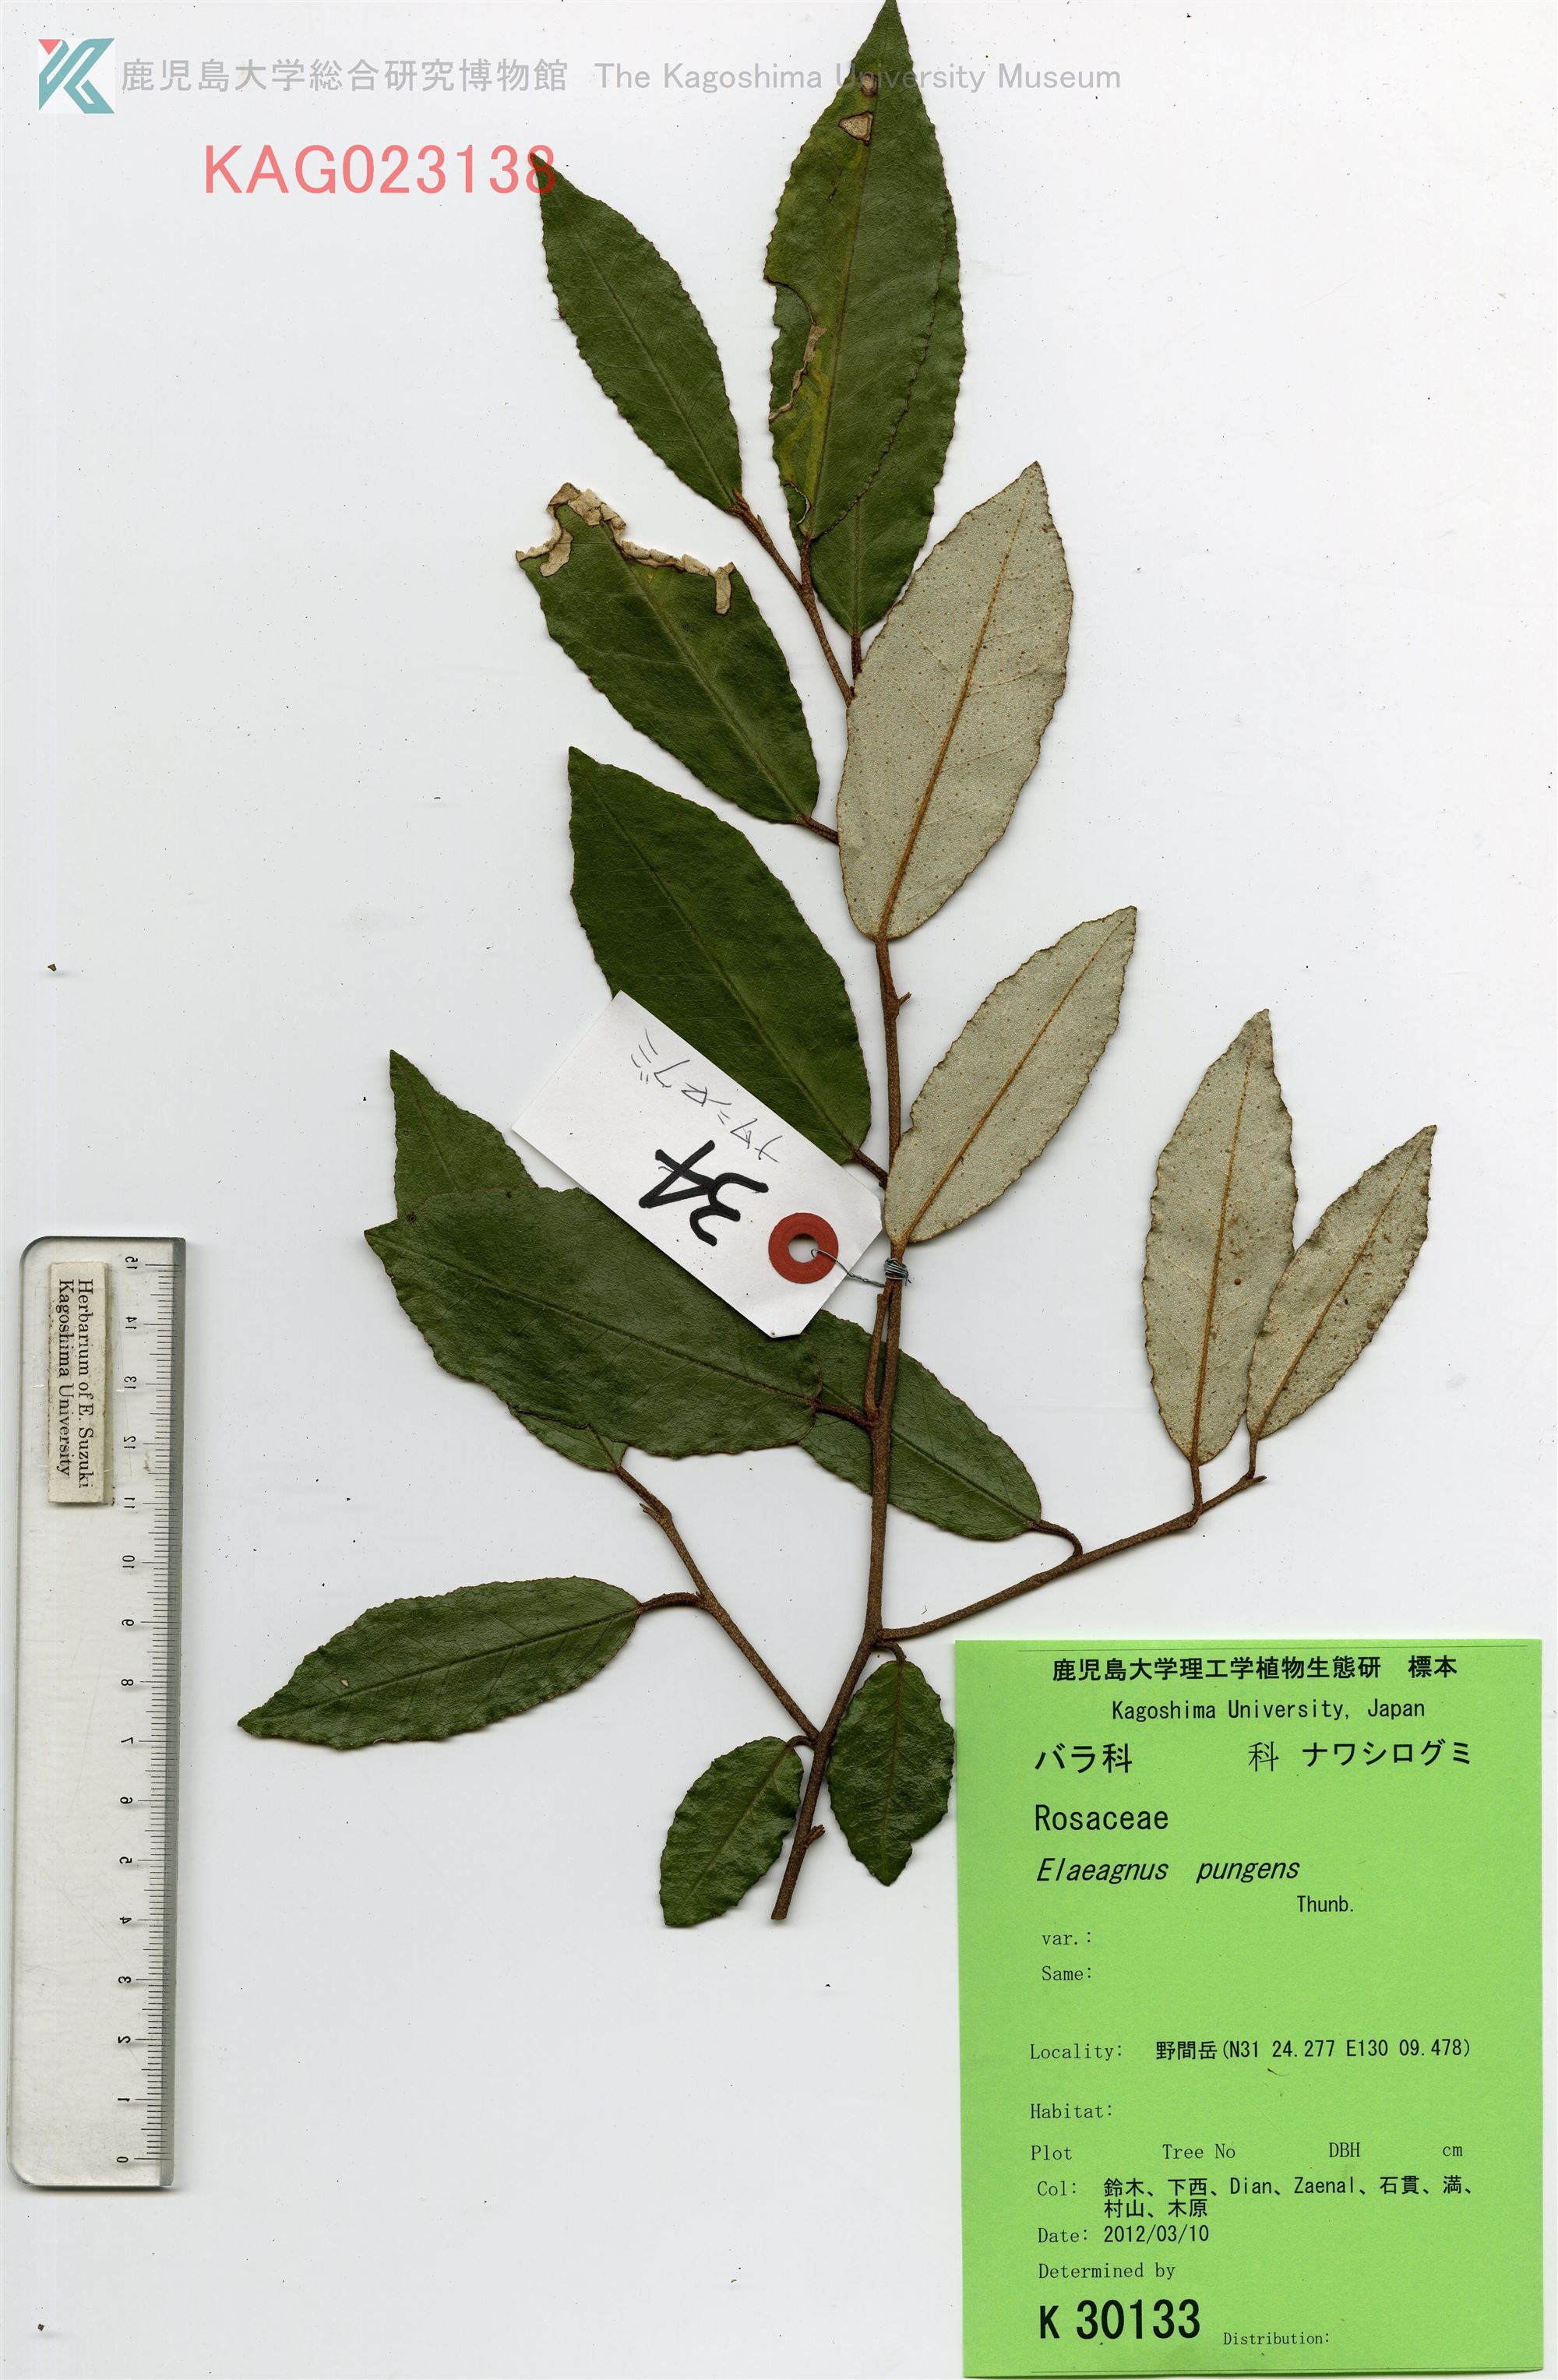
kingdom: Plantae
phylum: Tracheophyta
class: Magnoliopsida
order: Rosales
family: Elaeagnaceae
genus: Elaeagnus
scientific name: Elaeagnus pungens
